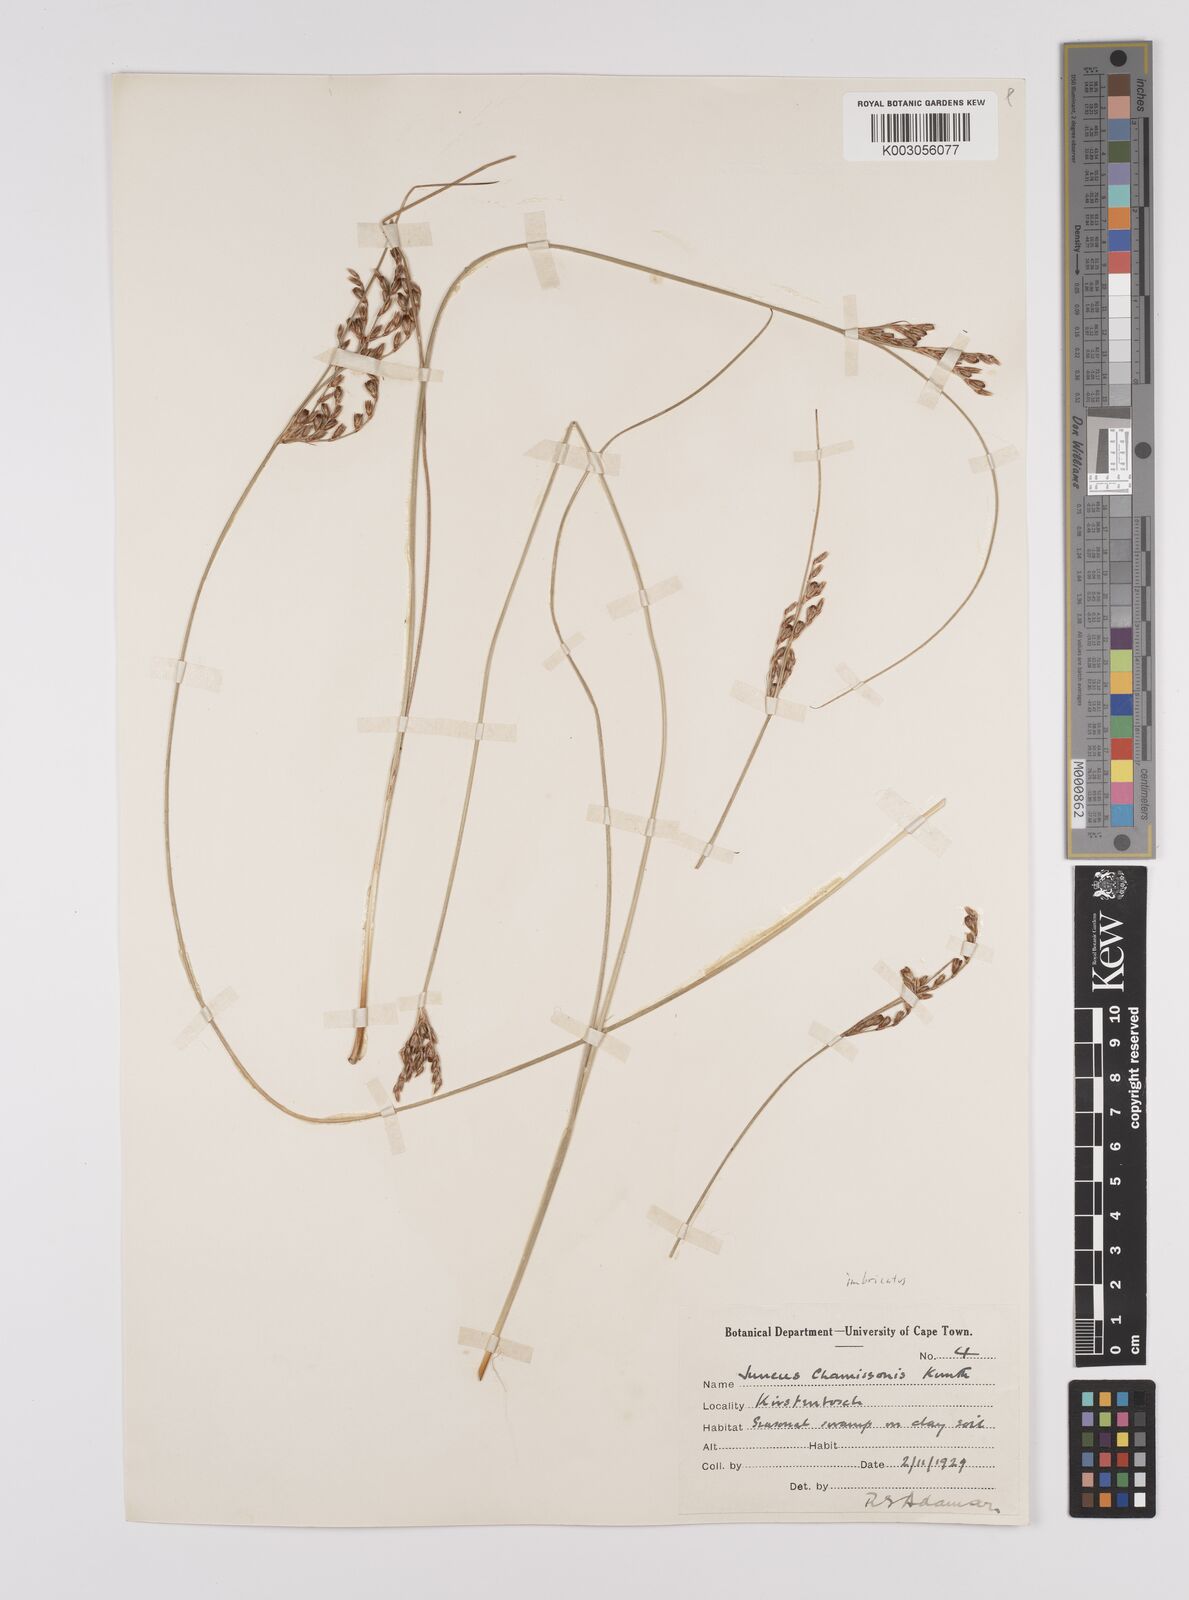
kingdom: Plantae
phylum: Tracheophyta
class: Liliopsida
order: Poales
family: Juncaceae
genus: Juncus
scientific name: Juncus imbricatus
